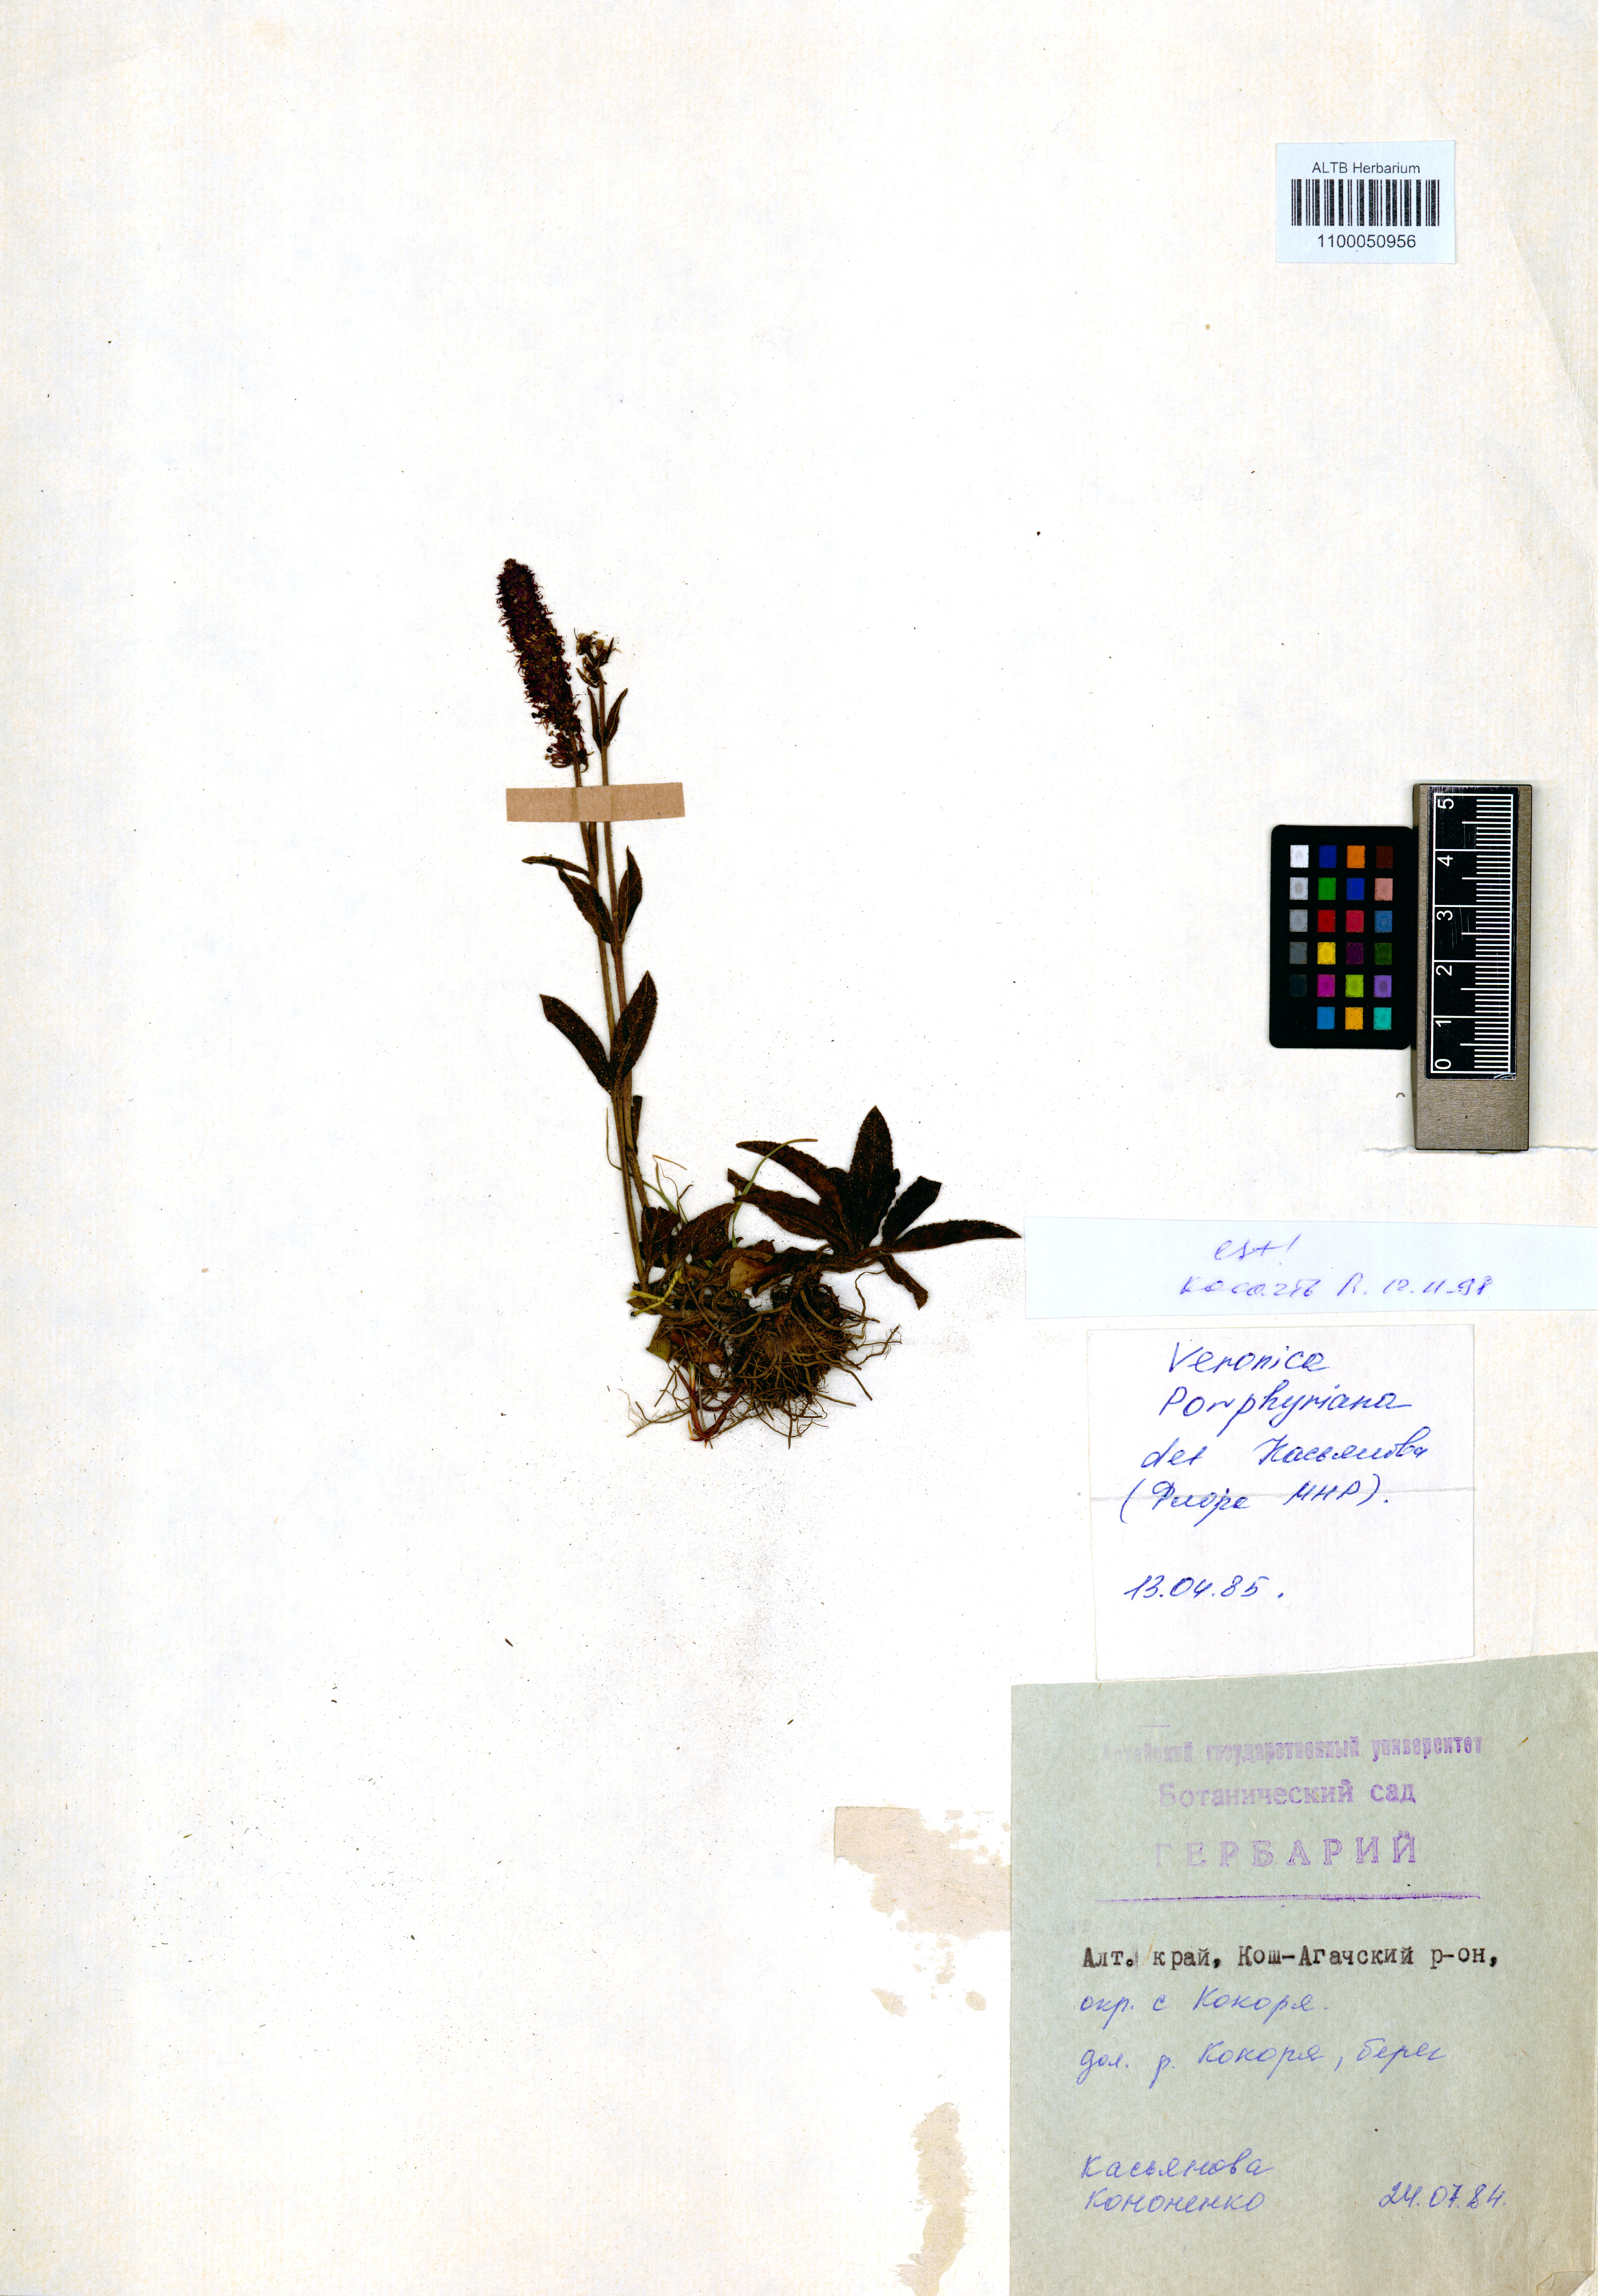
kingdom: Plantae
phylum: Tracheophyta
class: Magnoliopsida
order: Lamiales
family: Plantaginaceae
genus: Veronica
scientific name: Veronica porphyriana
